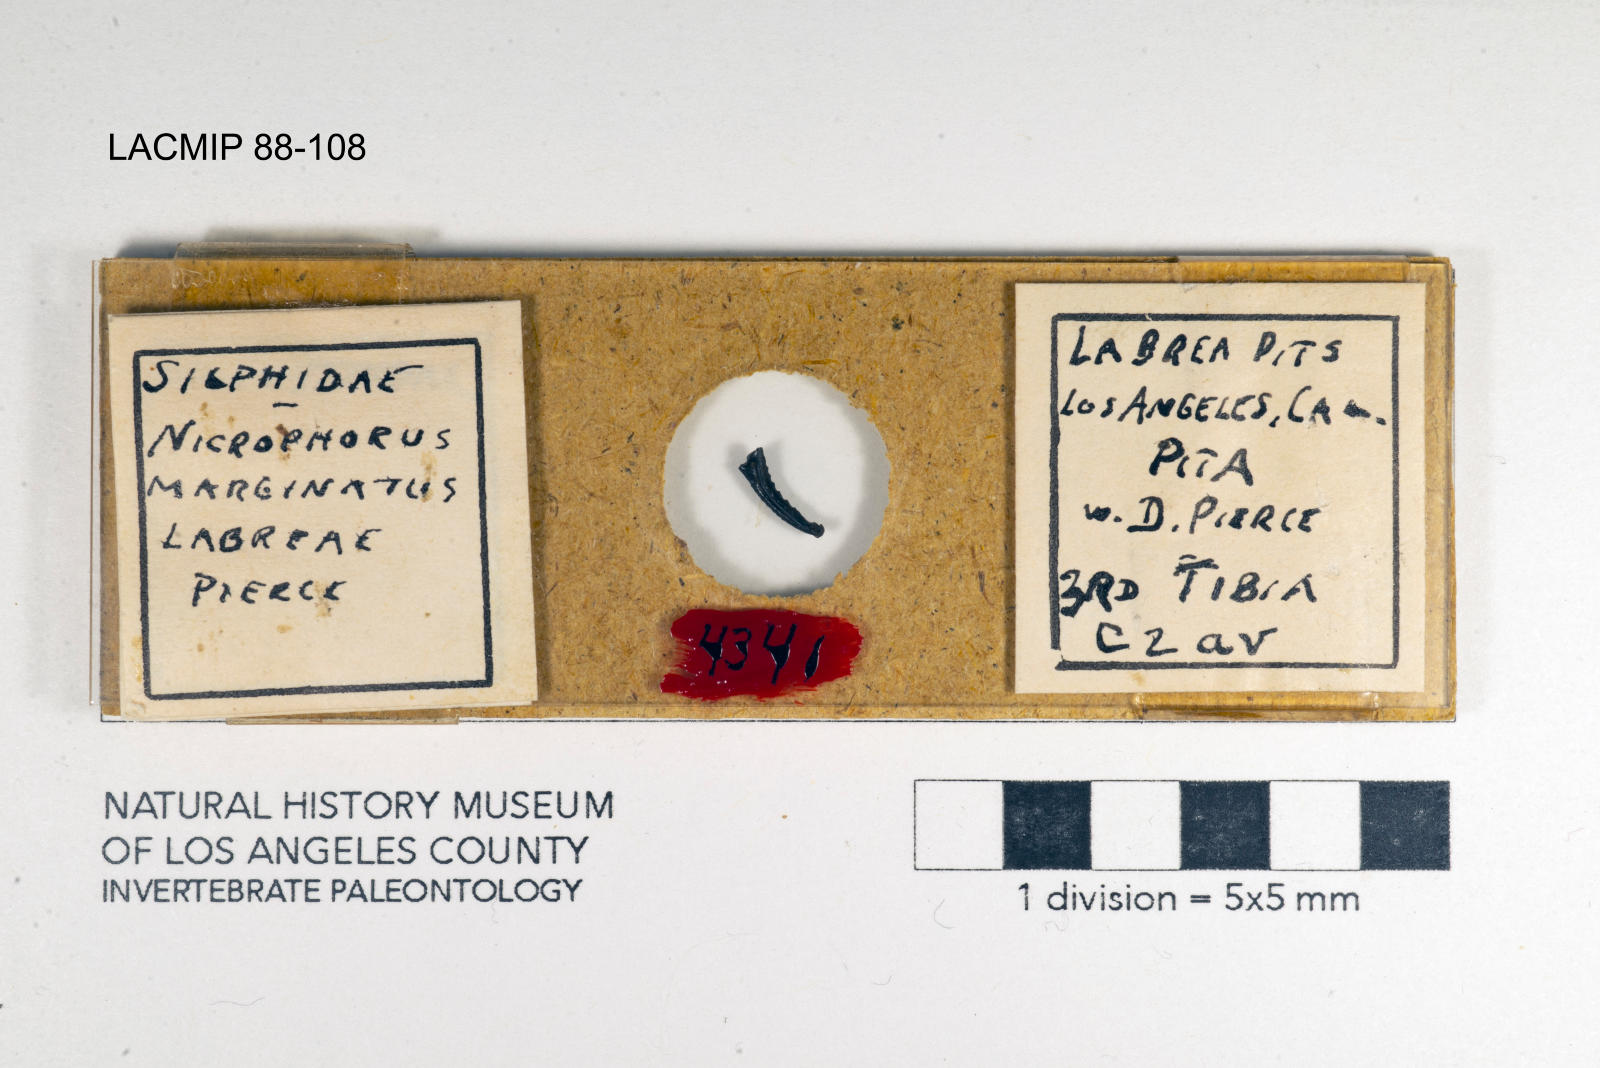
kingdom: Animalia
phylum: Arthropoda
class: Insecta
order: Coleoptera
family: Staphylinidae
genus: Nicrophorus
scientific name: Nicrophorus marginatus
